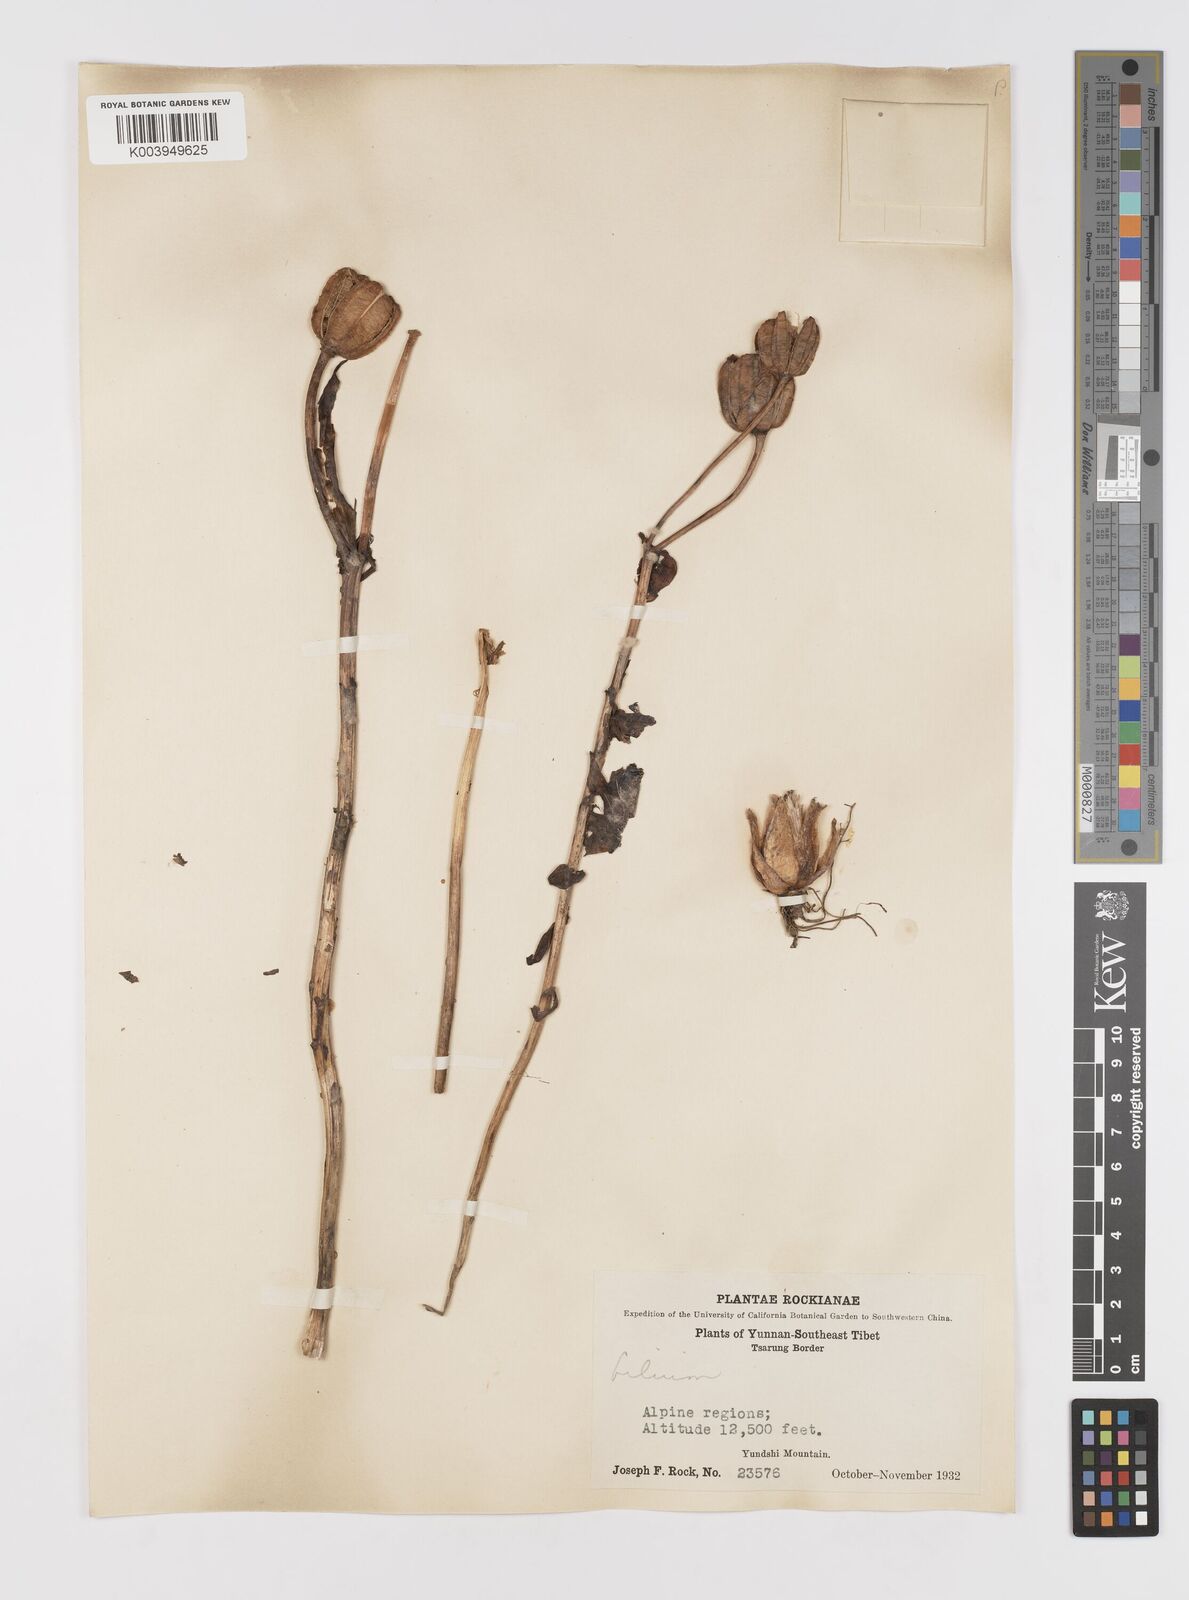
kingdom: Plantae
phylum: Tracheophyta
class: Liliopsida
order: Liliales
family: Liliaceae
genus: Lilium
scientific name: Lilium
